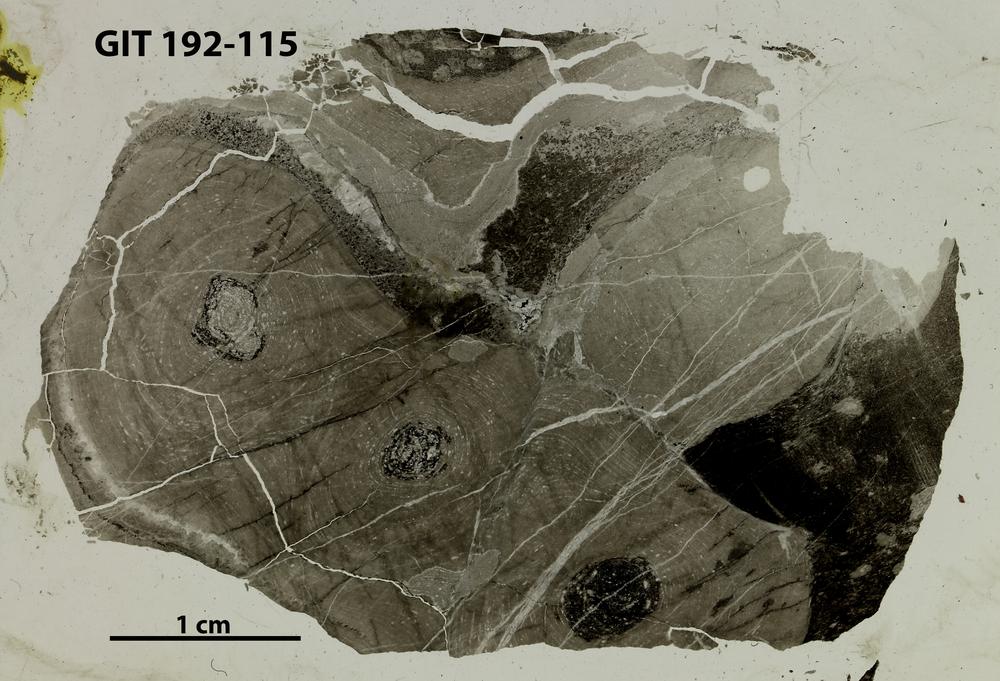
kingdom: Animalia
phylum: Porifera
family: Stromatoporidae
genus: Parallelostroma
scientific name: Parallelostroma
